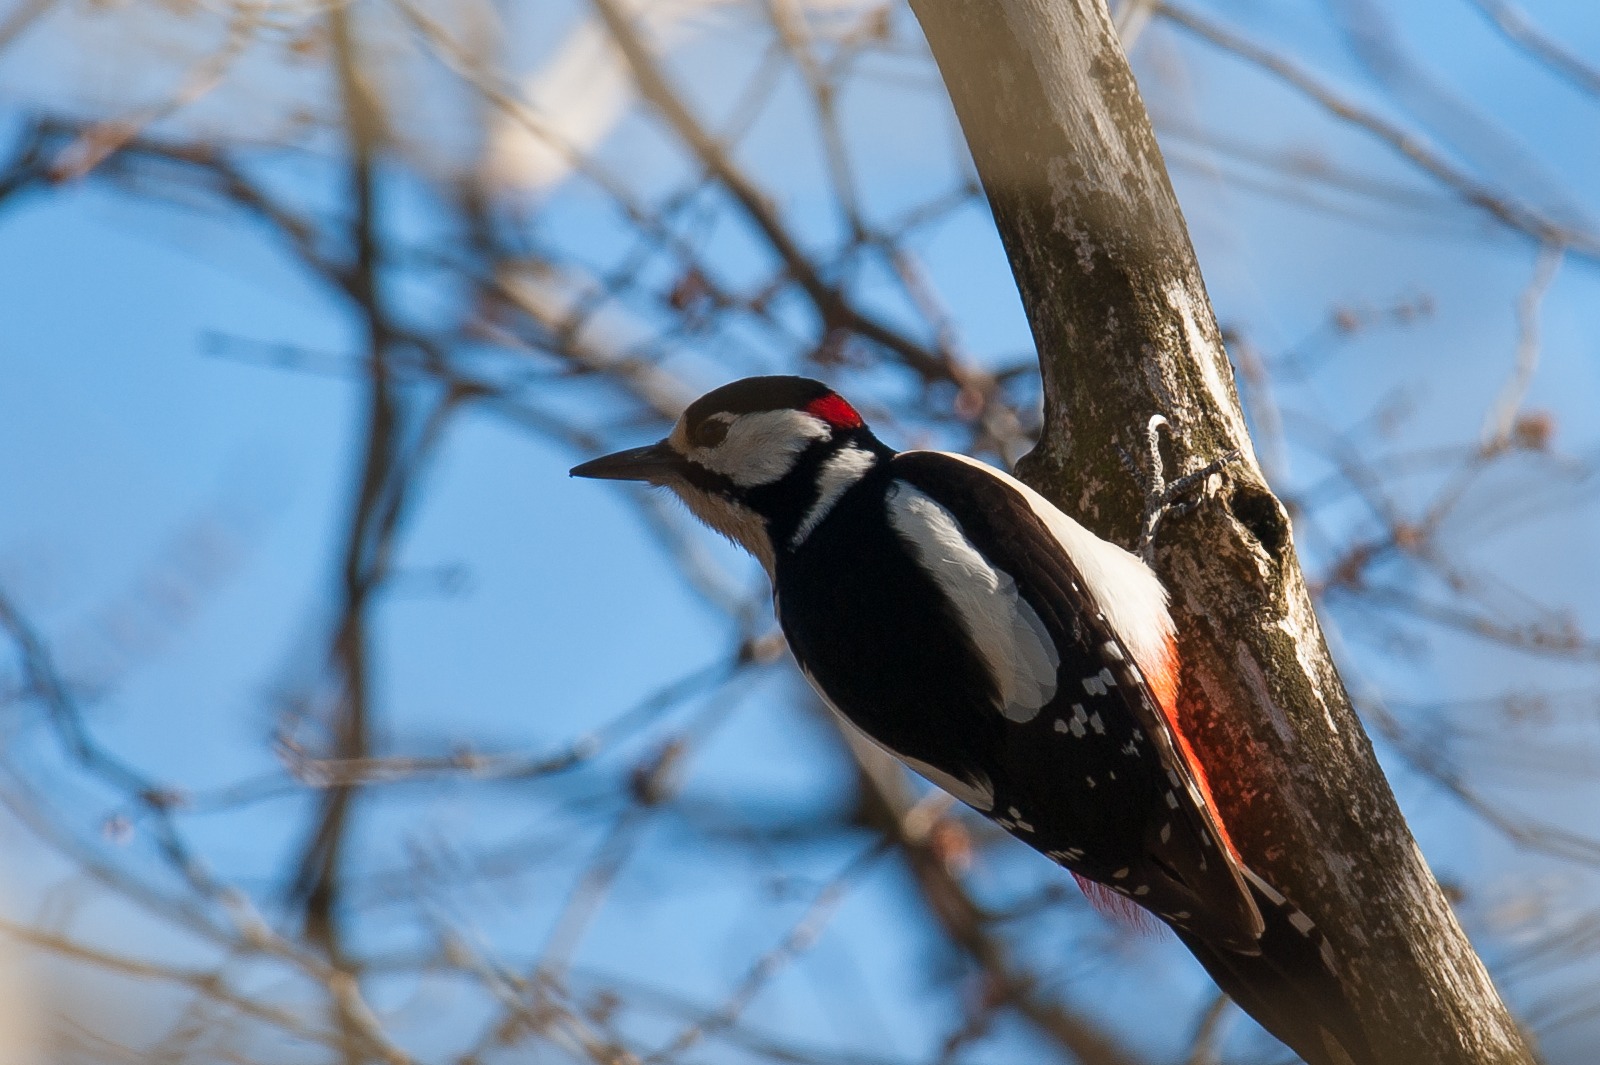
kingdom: Animalia
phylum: Chordata
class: Aves
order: Piciformes
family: Picidae
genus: Dendrocopos
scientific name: Dendrocopos major
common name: Stor flagspætte
